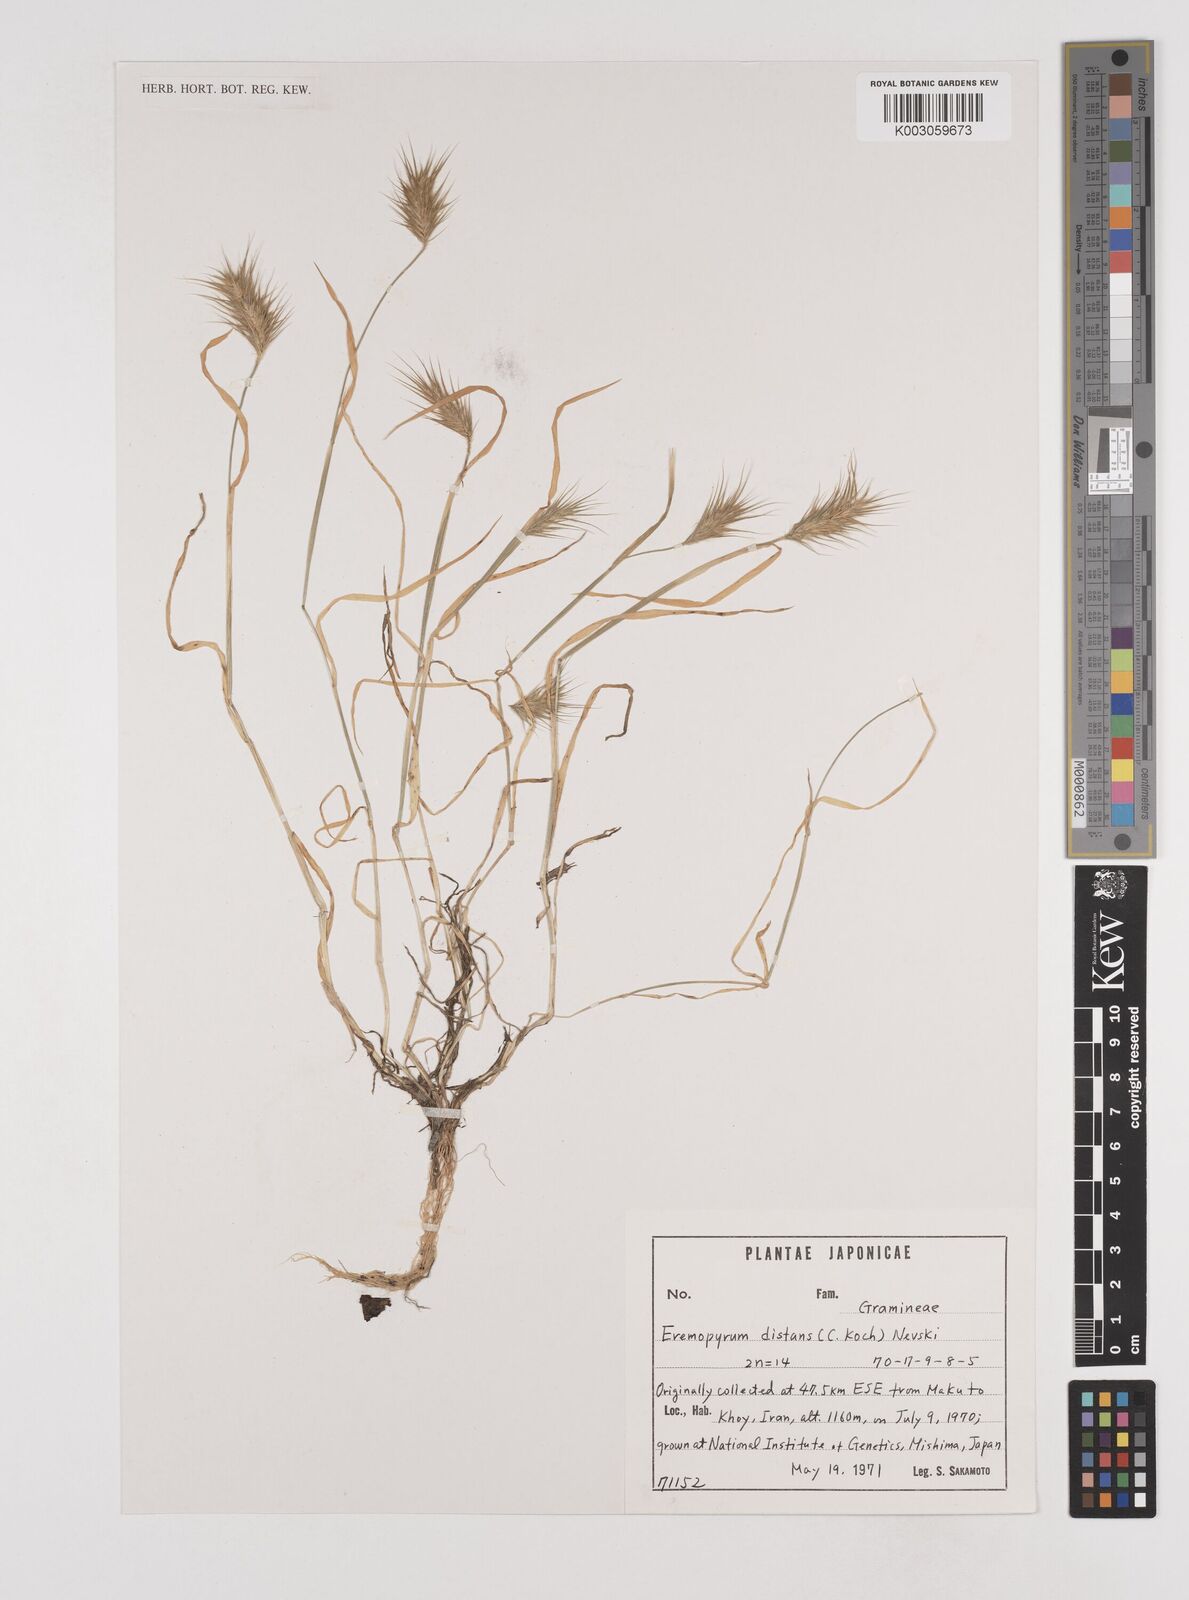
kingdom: Plantae
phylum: Tracheophyta
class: Liliopsida
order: Poales
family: Poaceae
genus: Eremopyrum
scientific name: Eremopyrum distans
